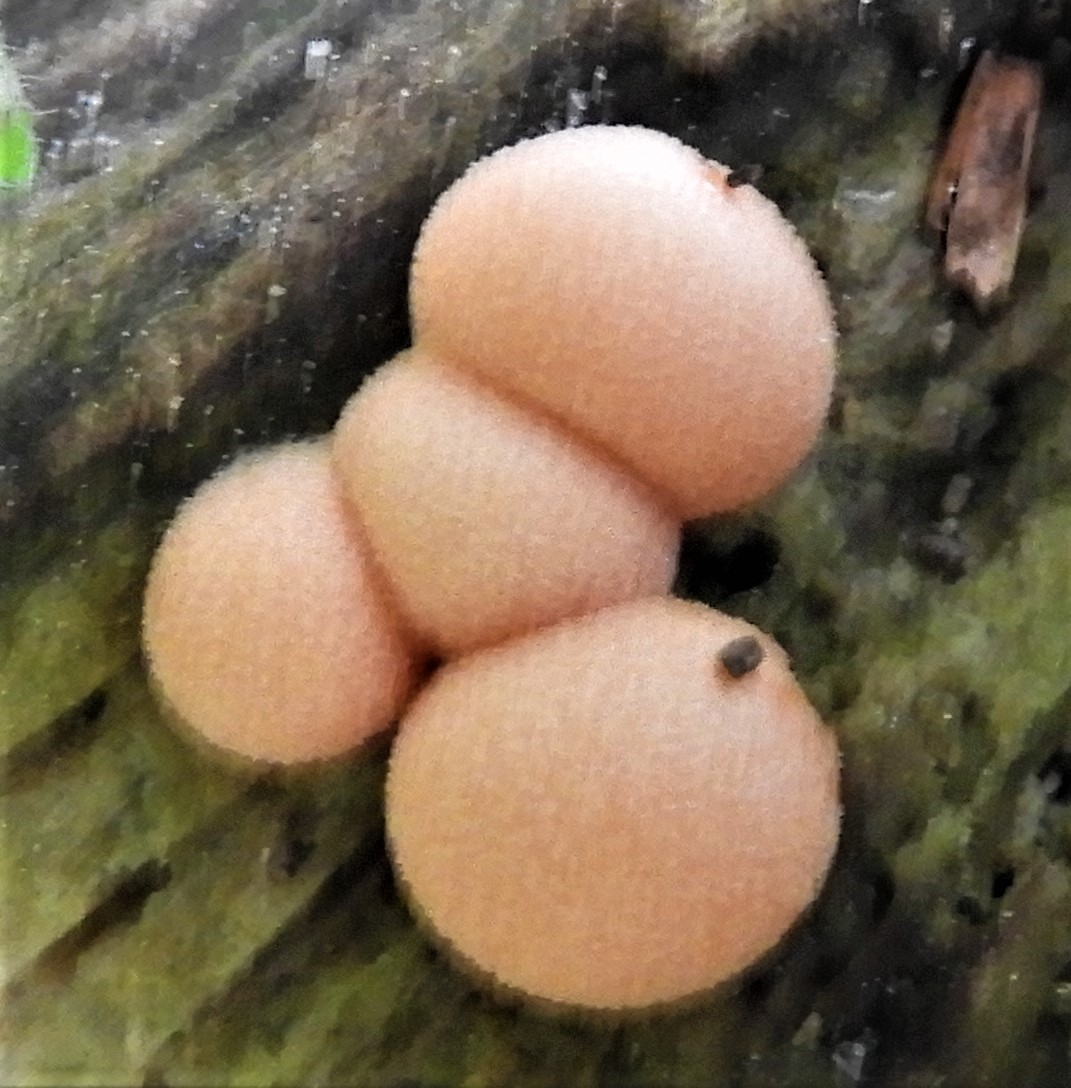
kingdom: Protozoa
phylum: Mycetozoa
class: Myxomycetes
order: Cribrariales
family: Tubiferaceae
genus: Lycogala
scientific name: Lycogala epidendrum
